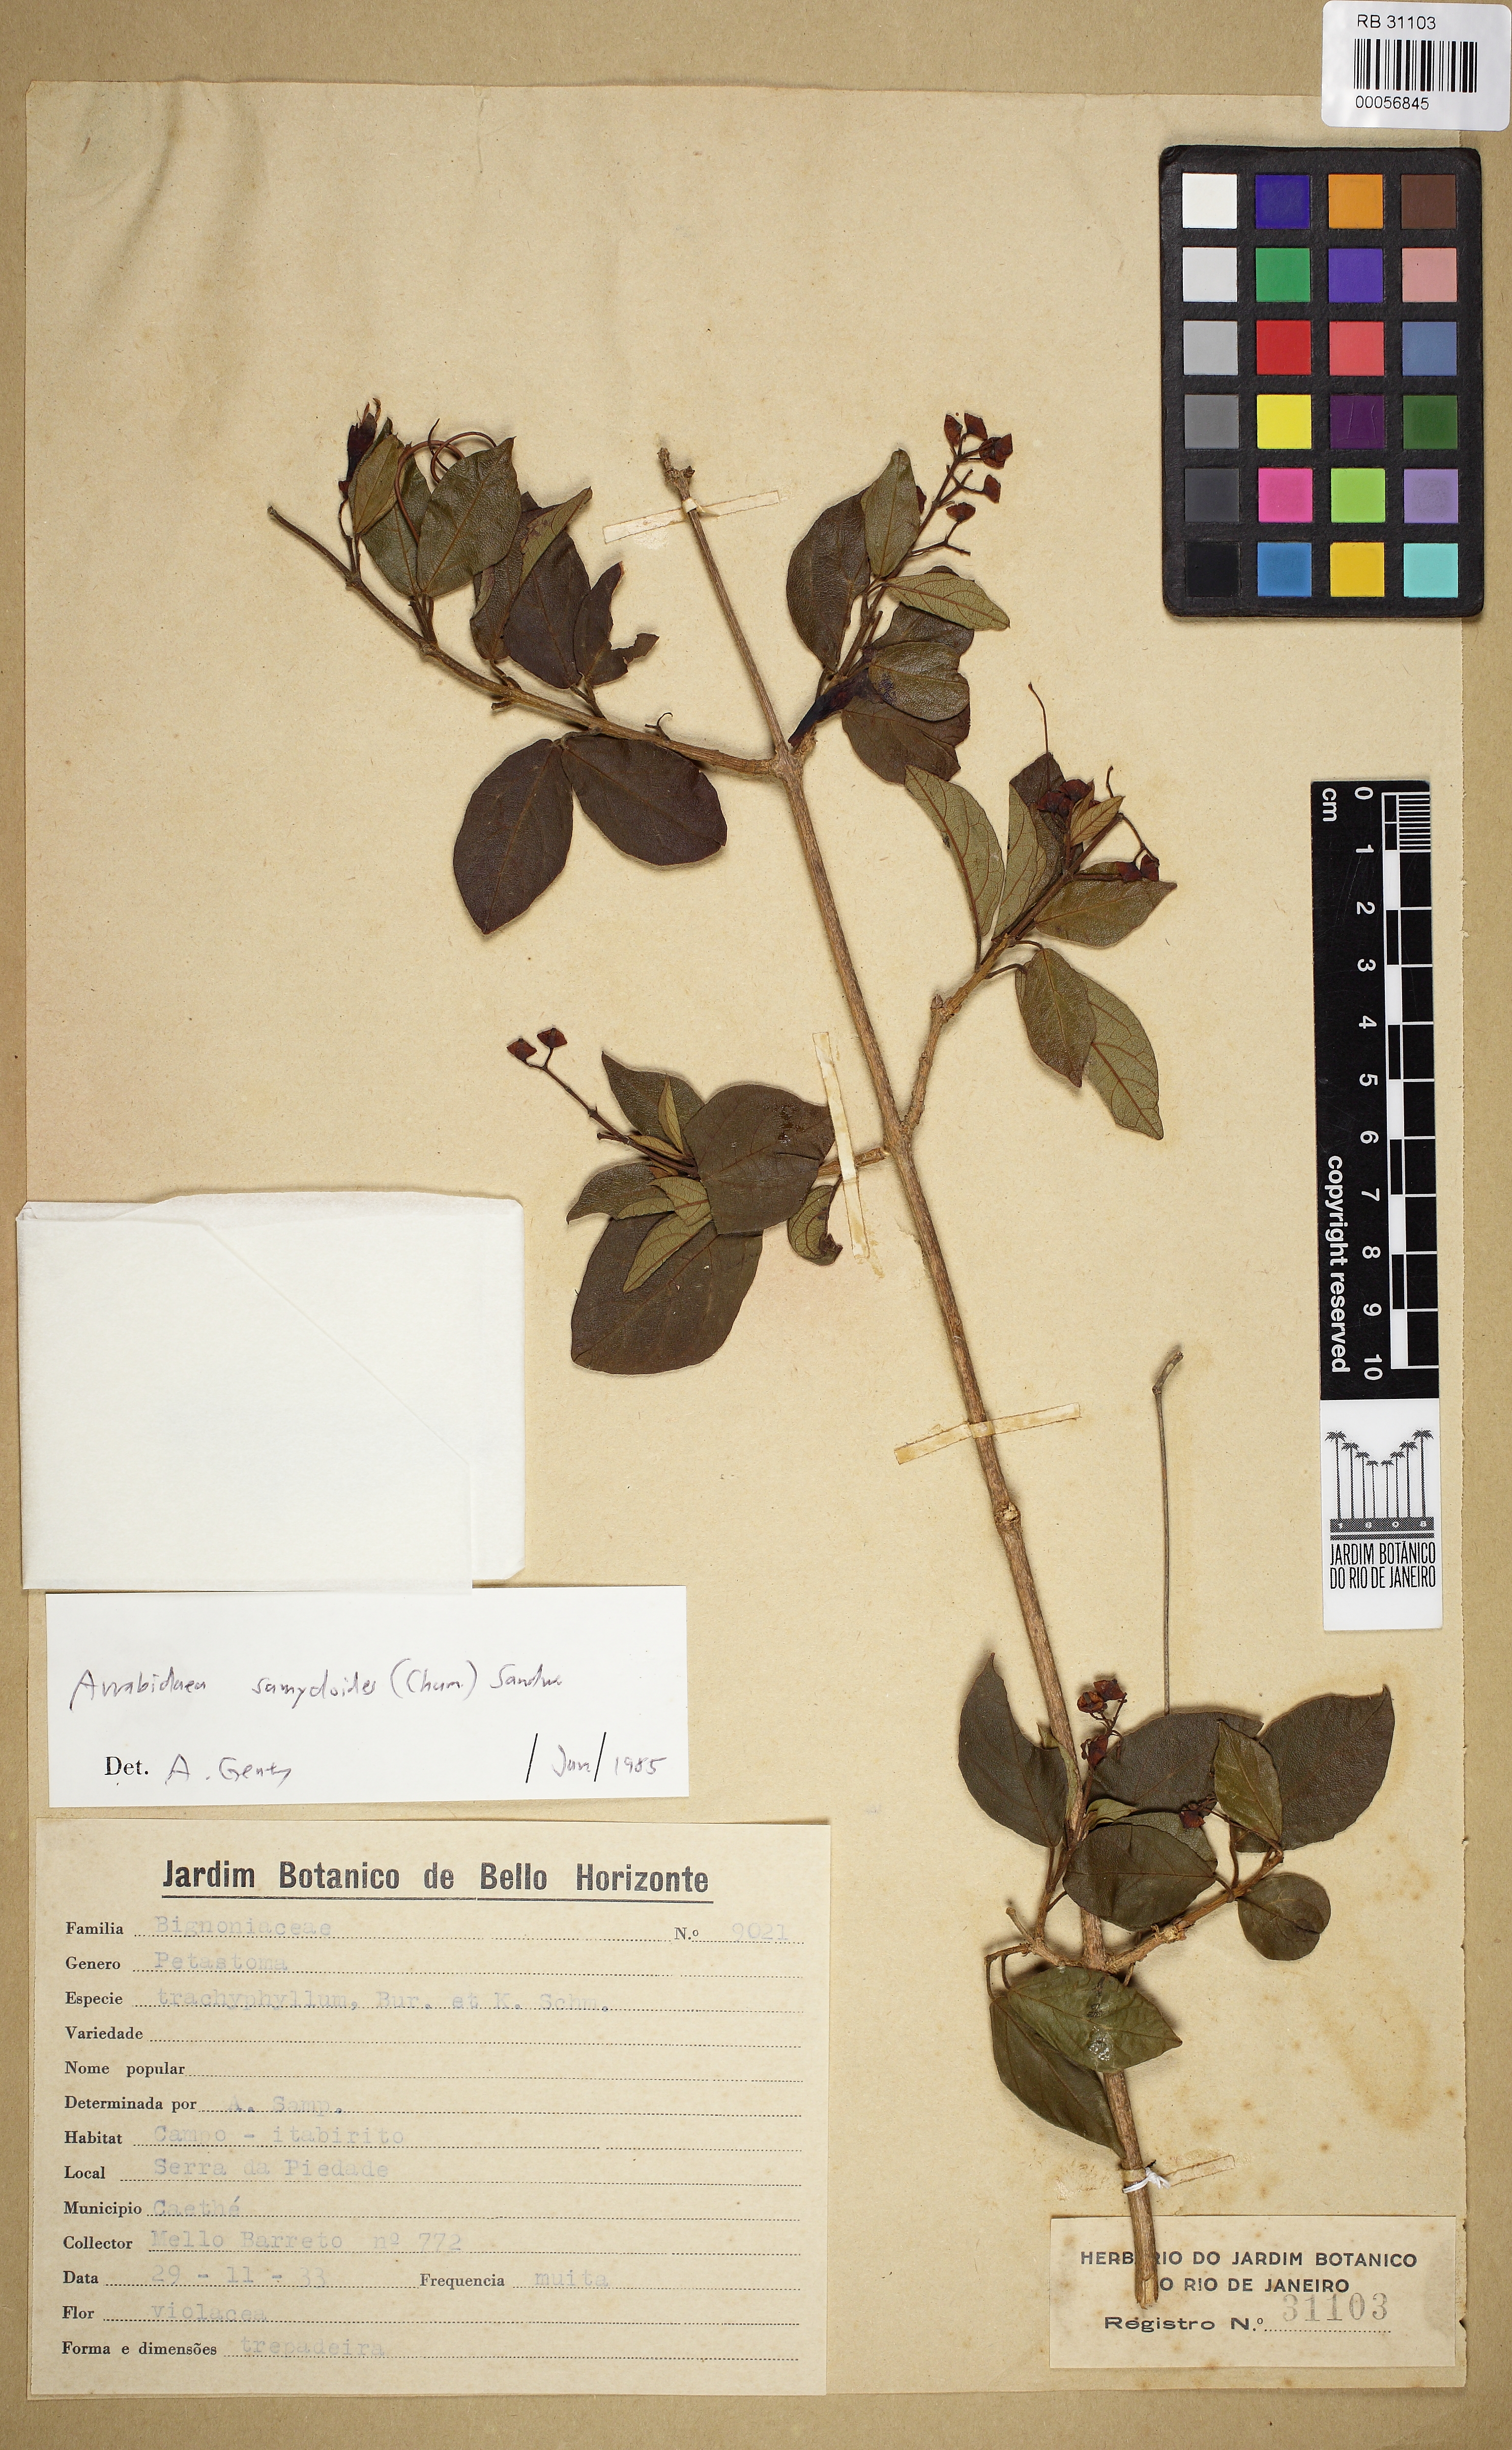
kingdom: Plantae
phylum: Tracheophyta
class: Magnoliopsida
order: Lamiales
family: Bignoniaceae
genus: Fridericia
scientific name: Fridericia samydoides
